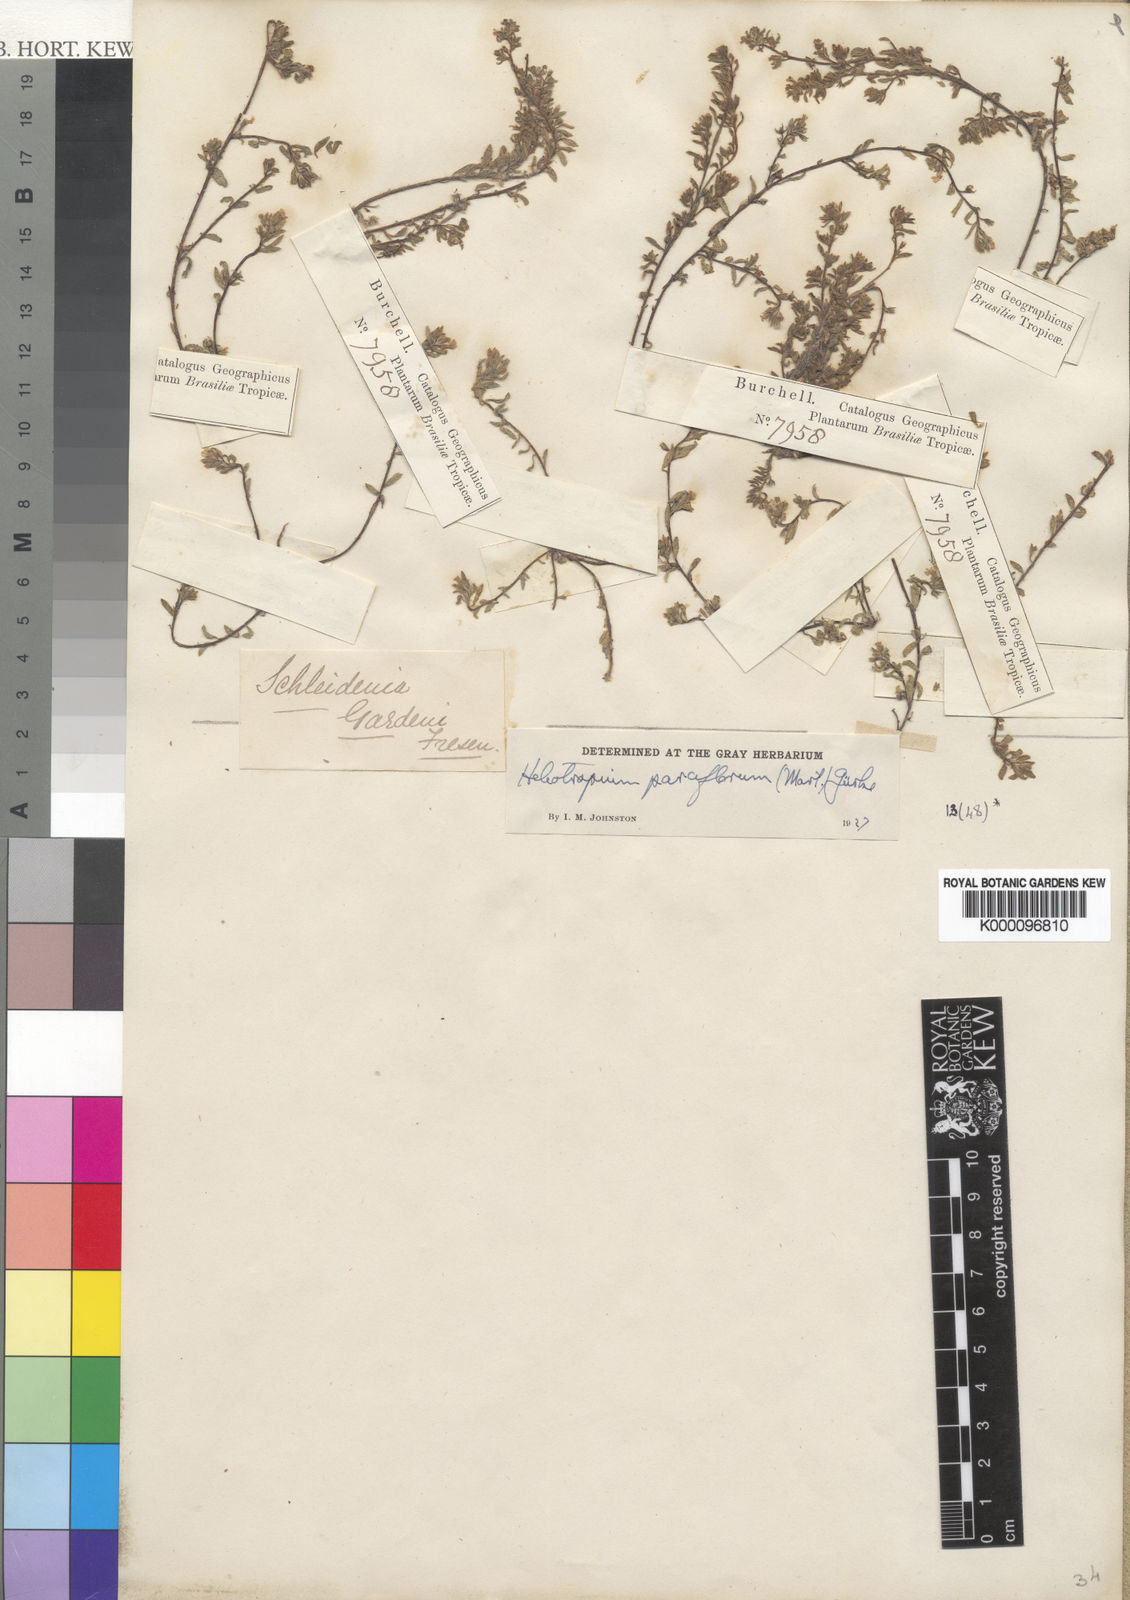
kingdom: Plantae
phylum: Tracheophyta
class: Magnoliopsida
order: Boraginales
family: Heliotropiaceae
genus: Heliotropium
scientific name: Heliotropium
